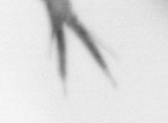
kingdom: Animalia
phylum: Arthropoda
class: Copepoda
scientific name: Copepoda
